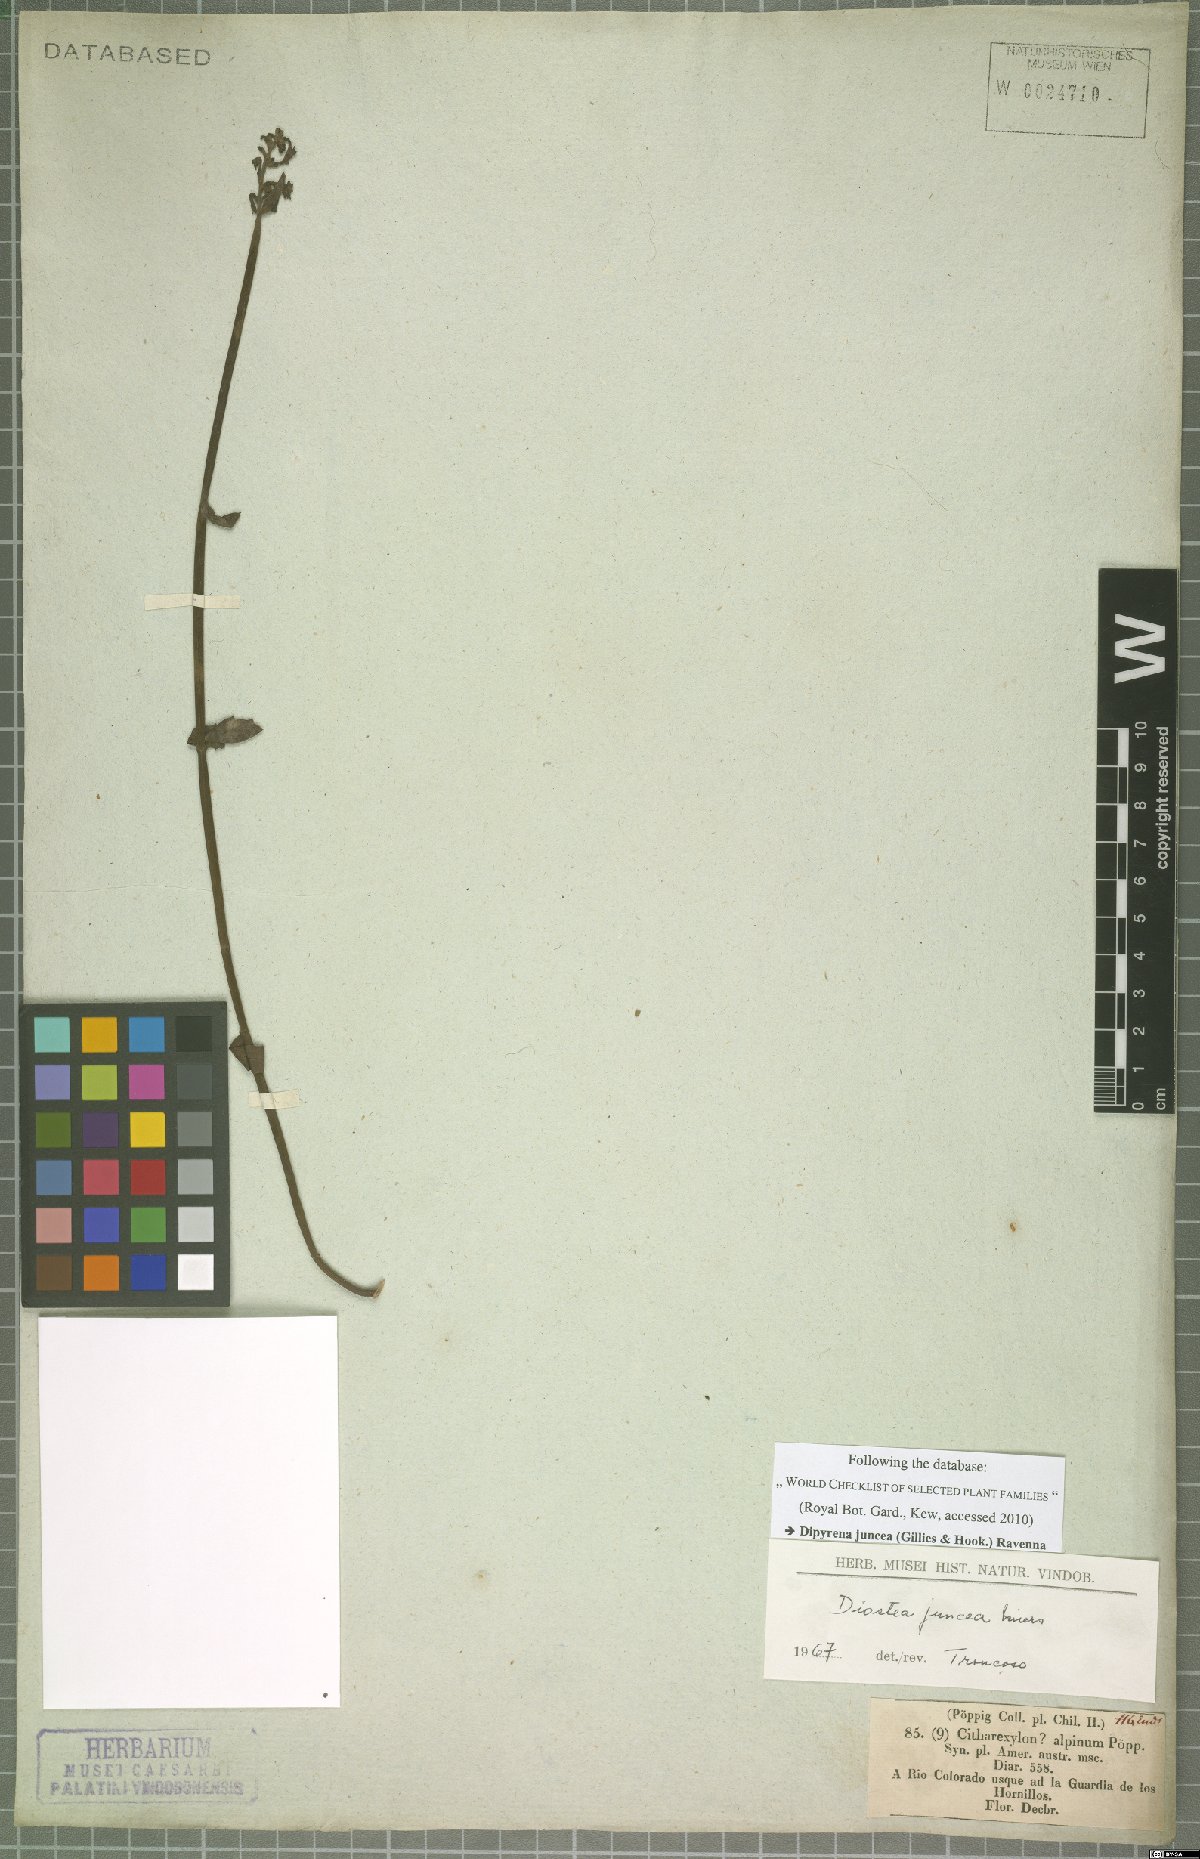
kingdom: Plantae
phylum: Tracheophyta
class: Magnoliopsida
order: Lamiales
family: Verbenaceae
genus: Diostea
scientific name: Diostea juncea
